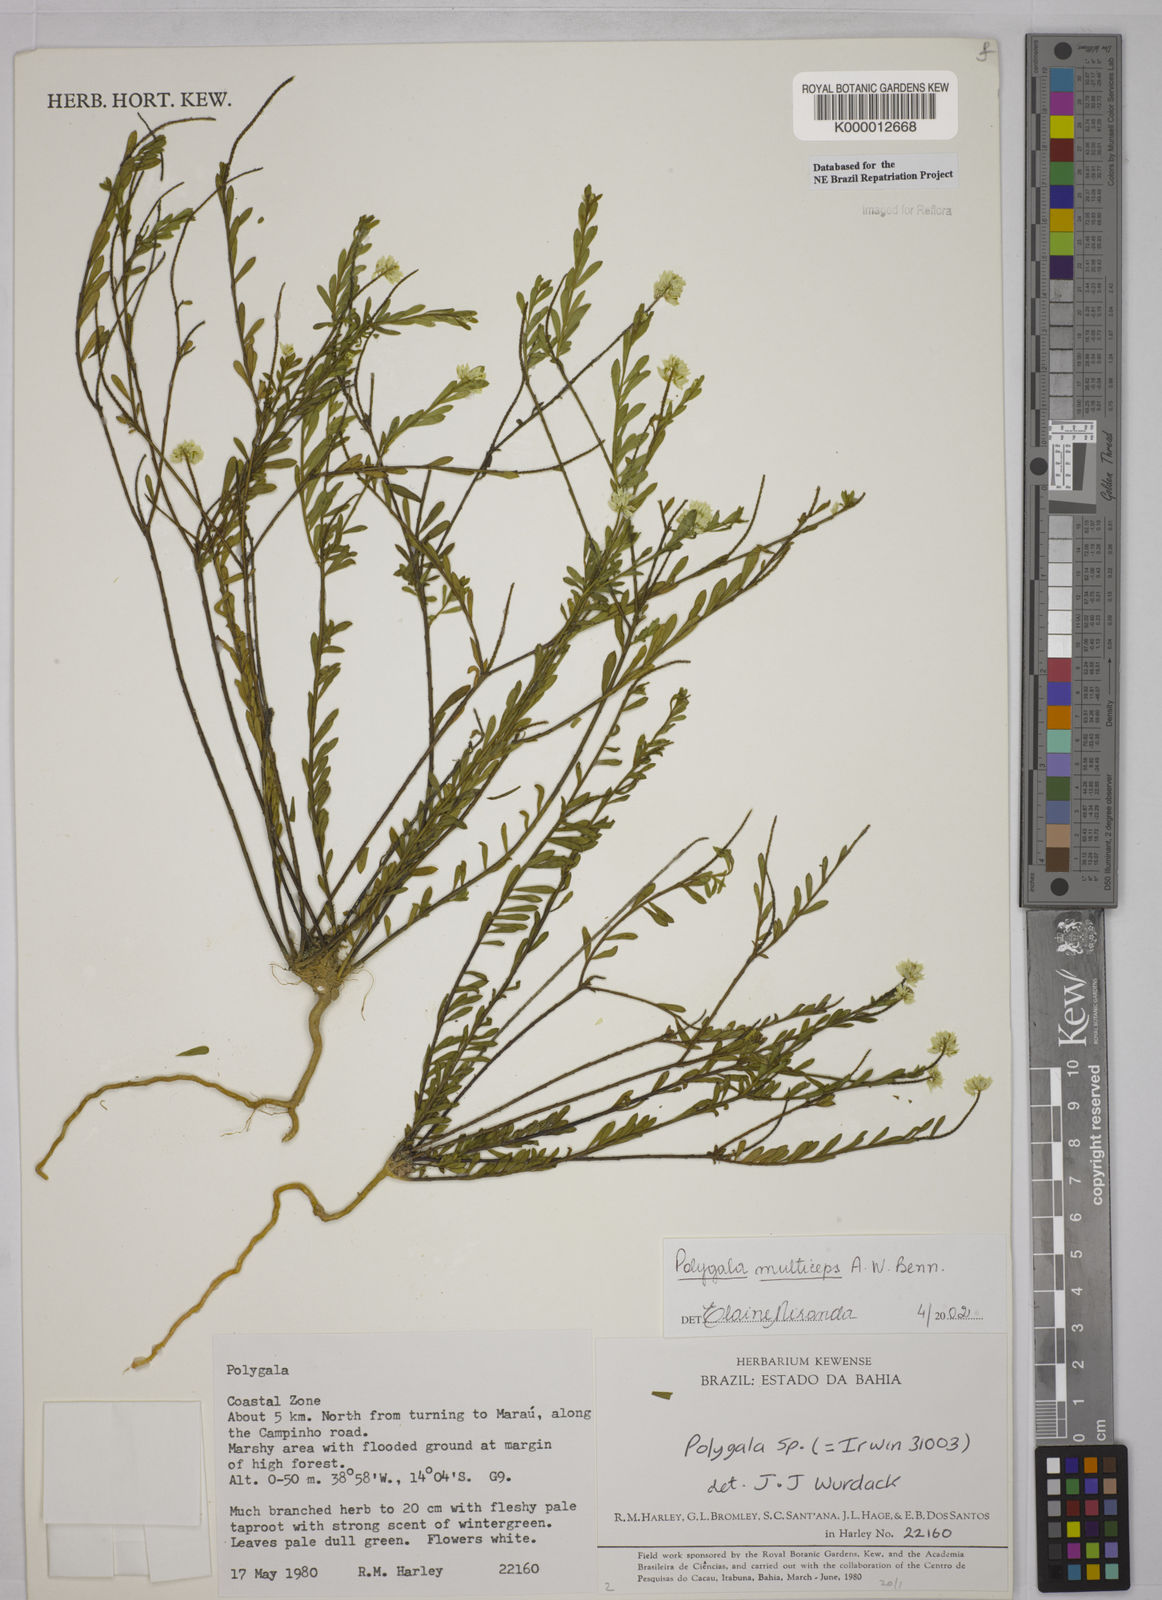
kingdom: Plantae
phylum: Tracheophyta
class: Magnoliopsida
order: Fabales
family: Polygalaceae
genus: Polygala
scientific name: Polygala
